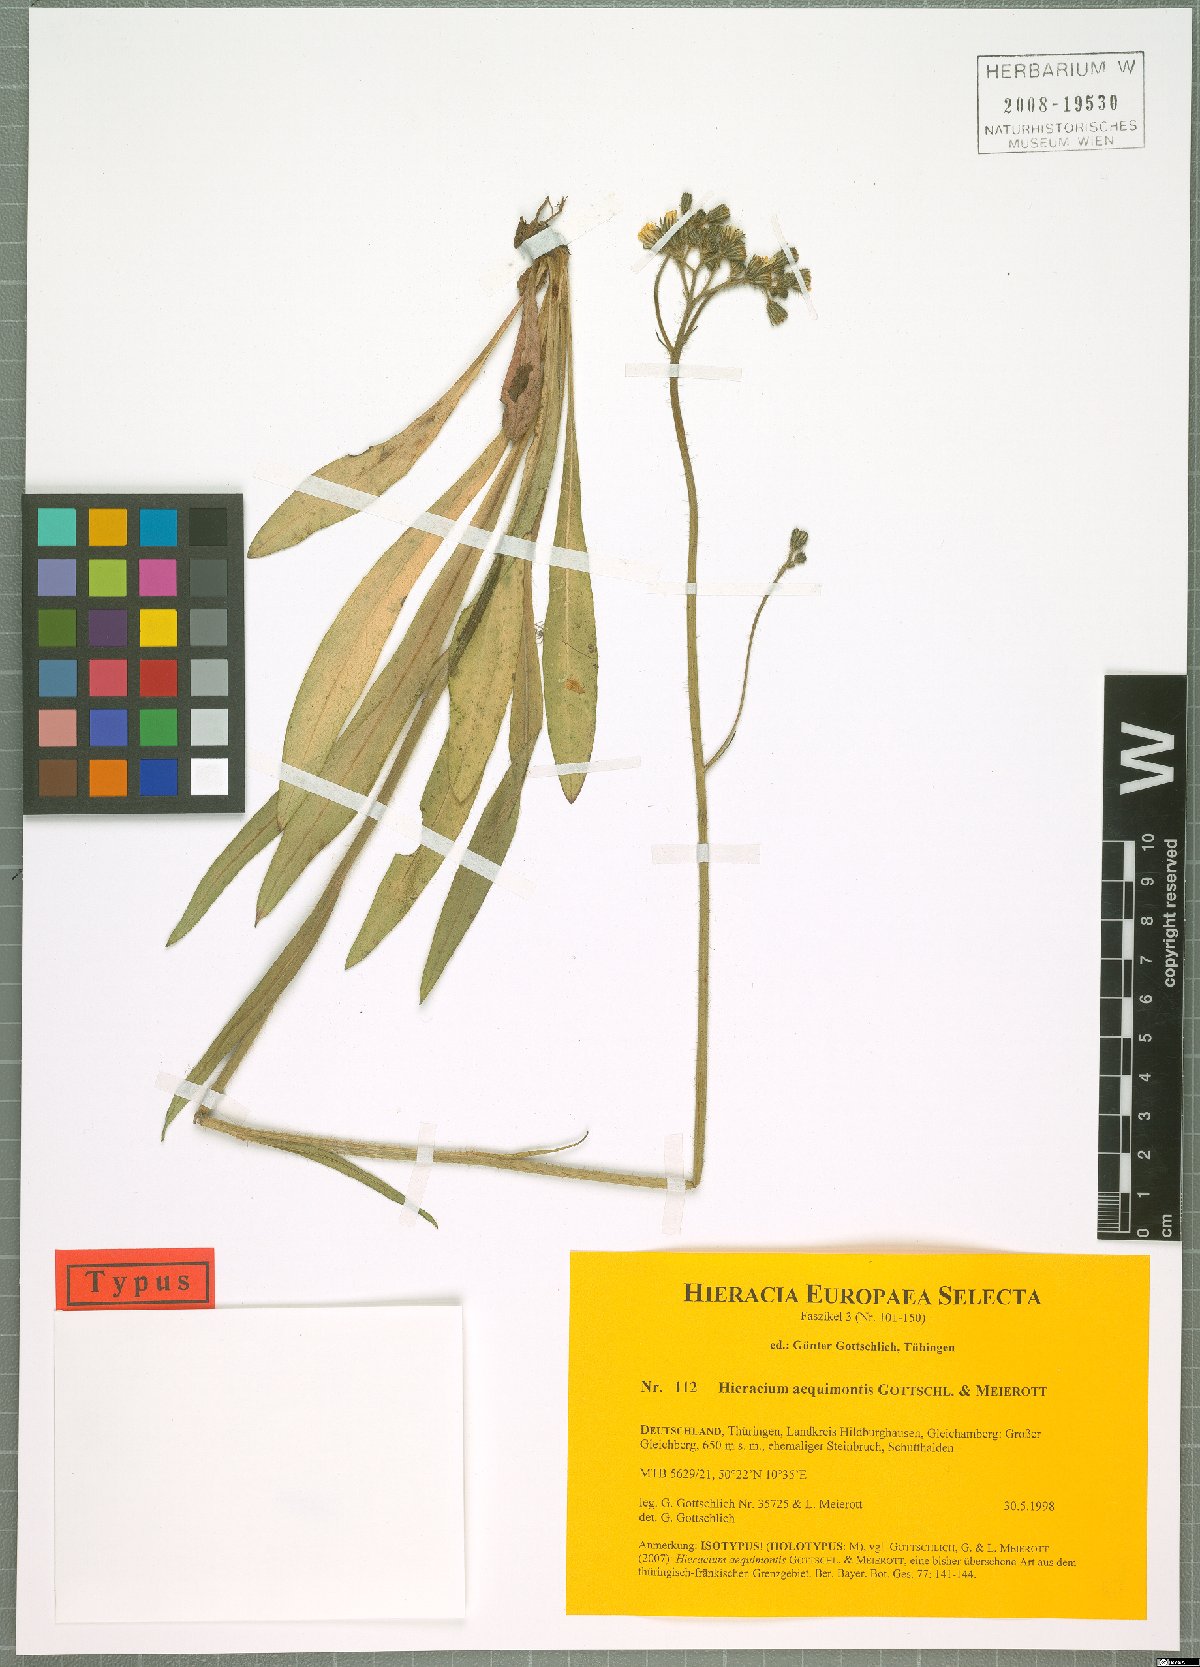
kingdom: Plantae
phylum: Tracheophyta
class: Magnoliopsida
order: Asterales
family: Asteraceae
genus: Pilosella
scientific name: Pilosella aequimontis
